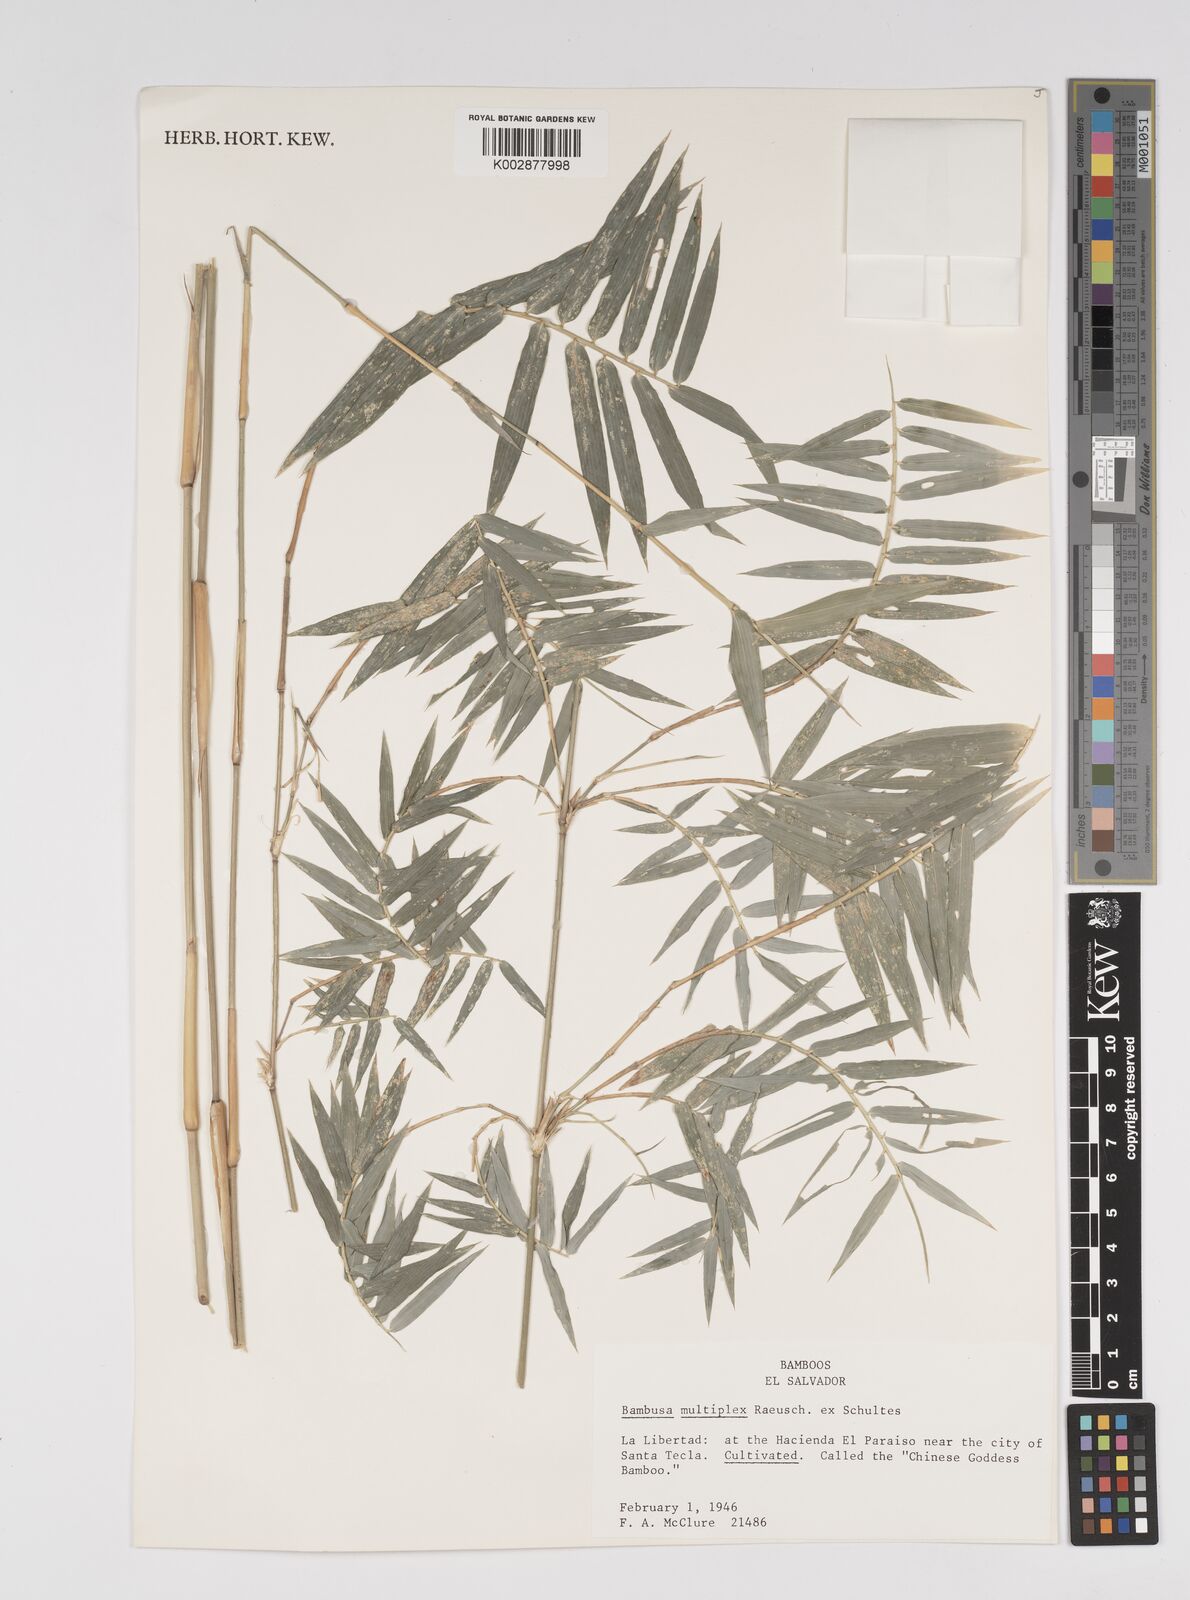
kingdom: Plantae
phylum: Tracheophyta
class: Liliopsida
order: Poales
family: Poaceae
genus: Bambusa
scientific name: Bambusa multiplex
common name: Hedge bamboo
